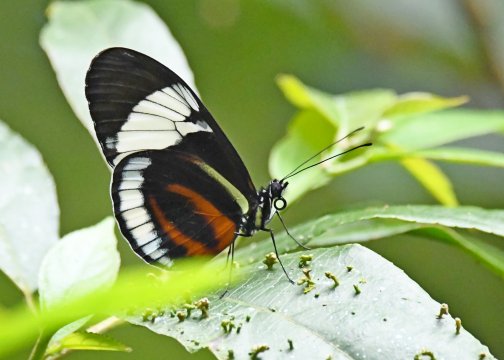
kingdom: Animalia
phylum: Arthropoda
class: Insecta
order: Lepidoptera
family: Nymphalidae
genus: Heliconius
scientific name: Heliconius cydno
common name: Cydno Longwing
